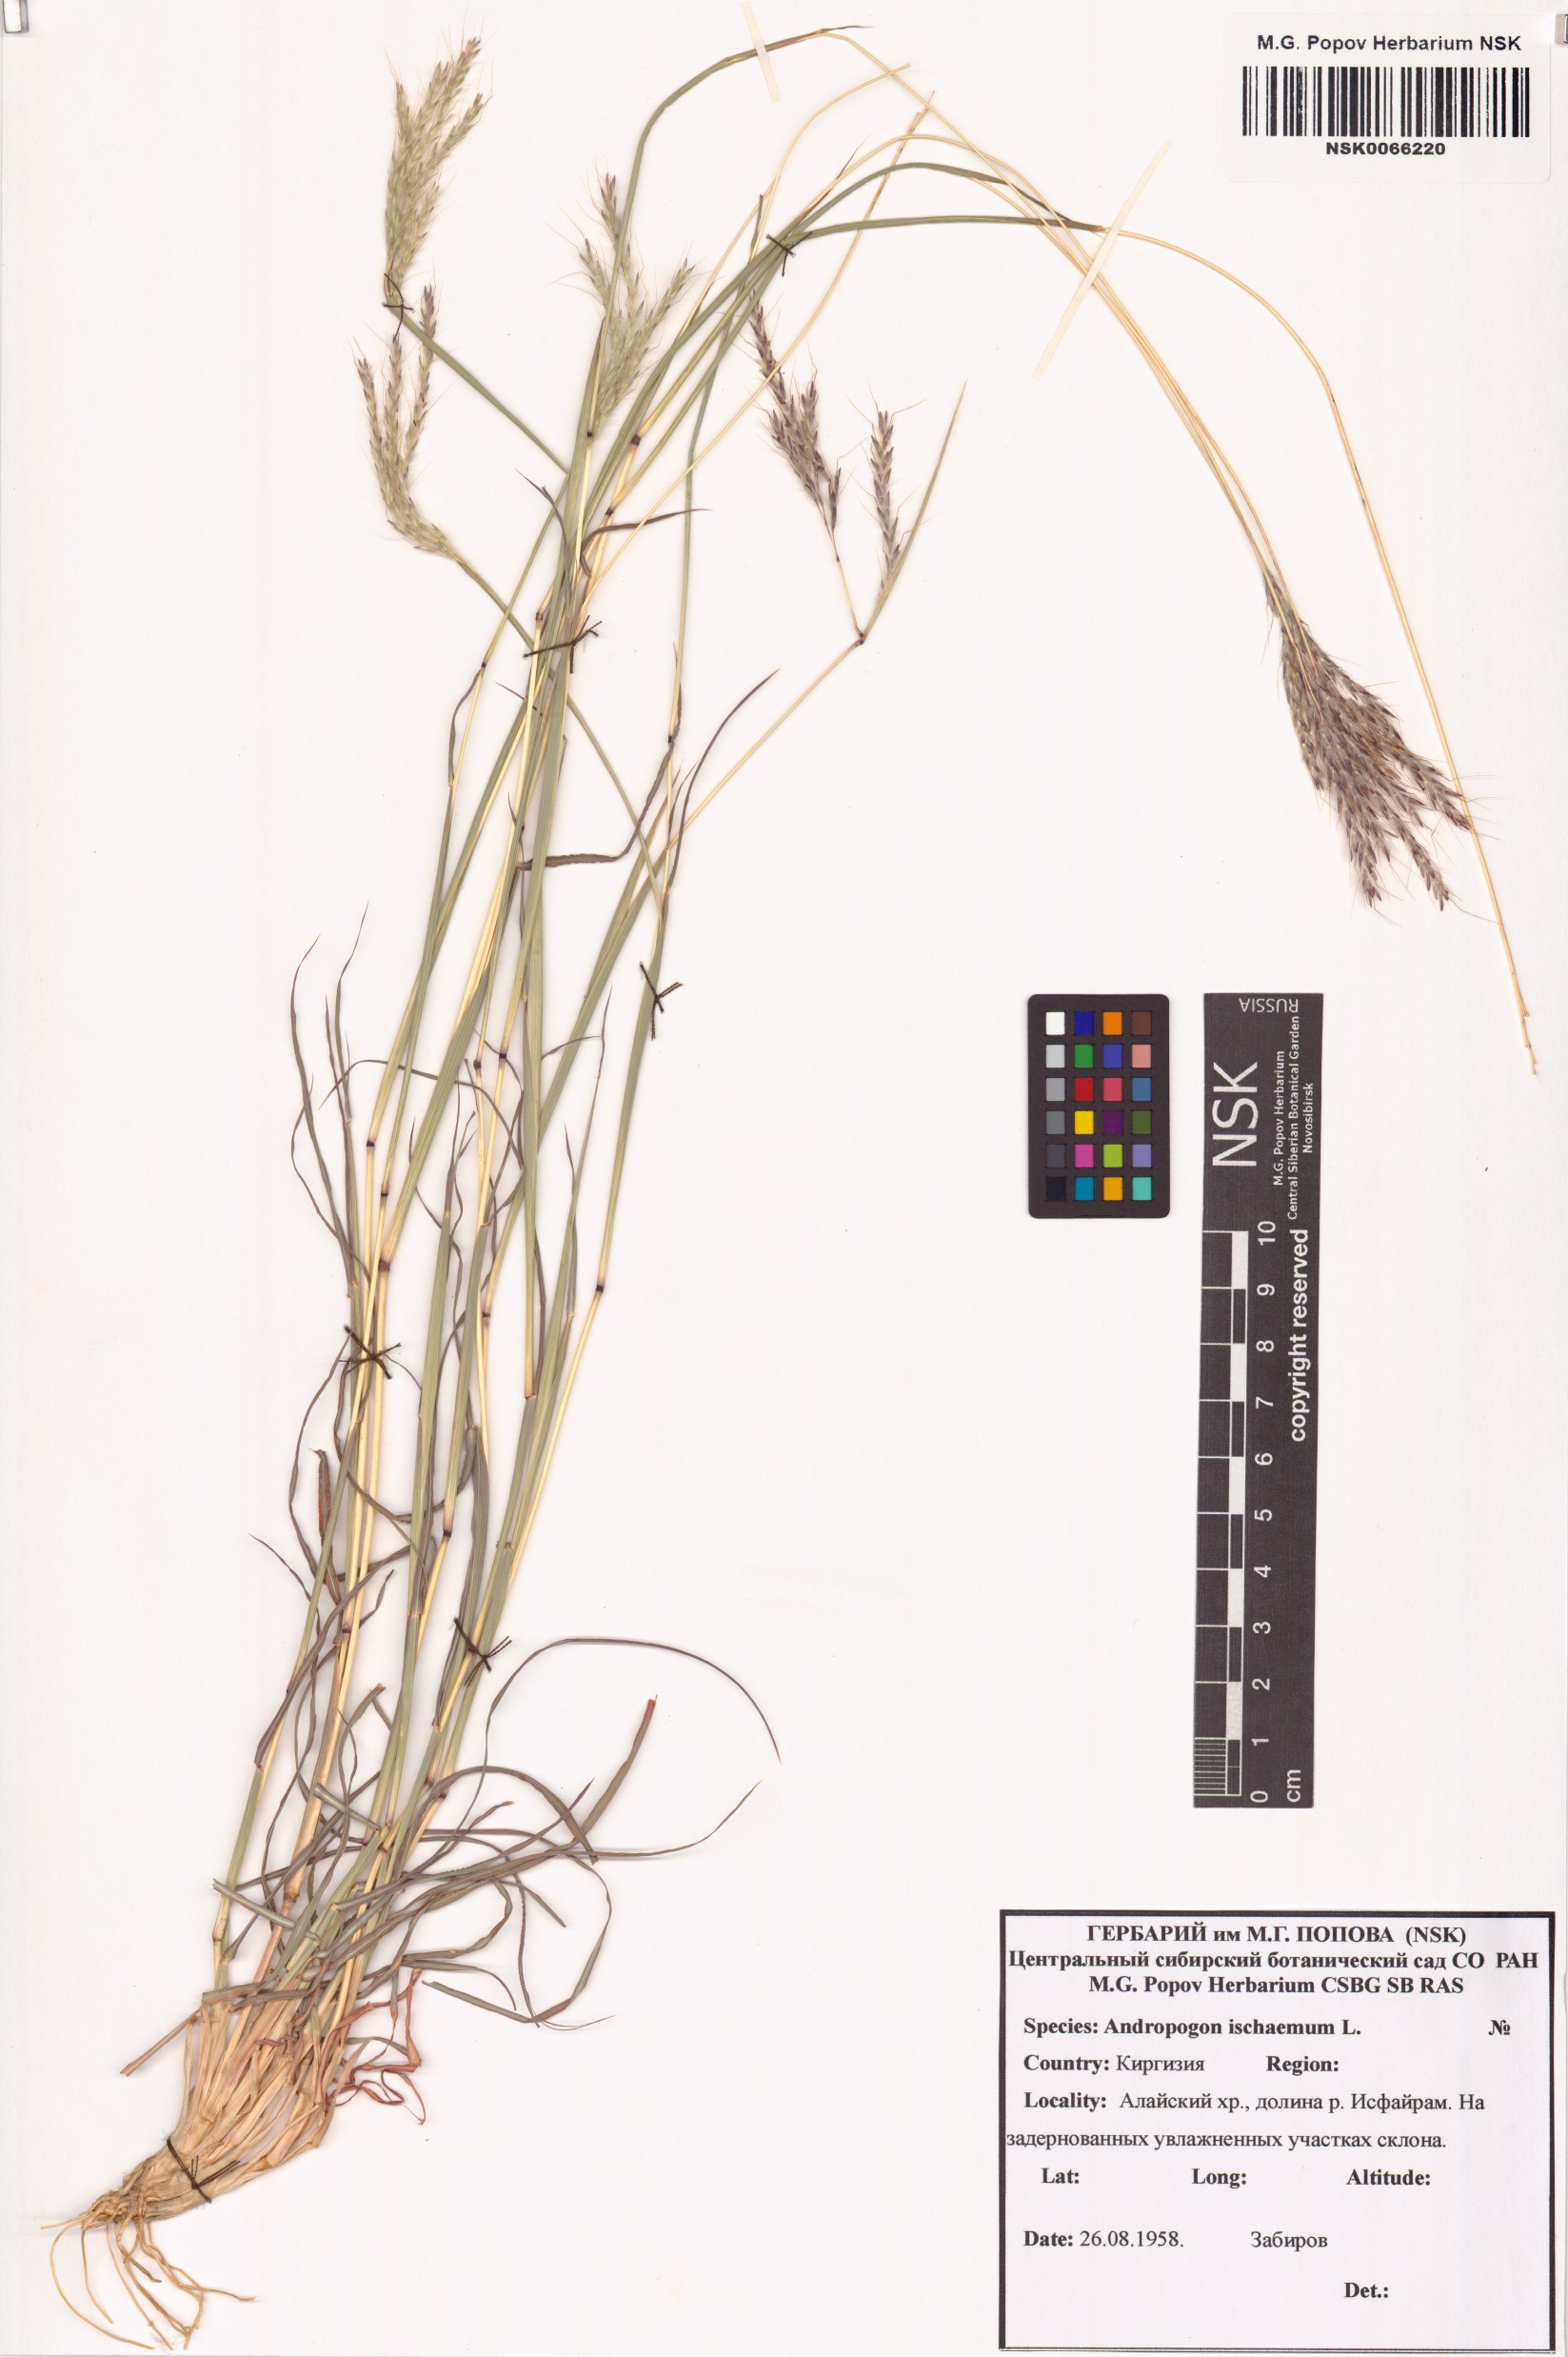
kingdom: Plantae
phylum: Tracheophyta
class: Liliopsida
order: Poales
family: Poaceae
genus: Bothriochloa
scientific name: Bothriochloa ischaemum
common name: Yellow bluestem
